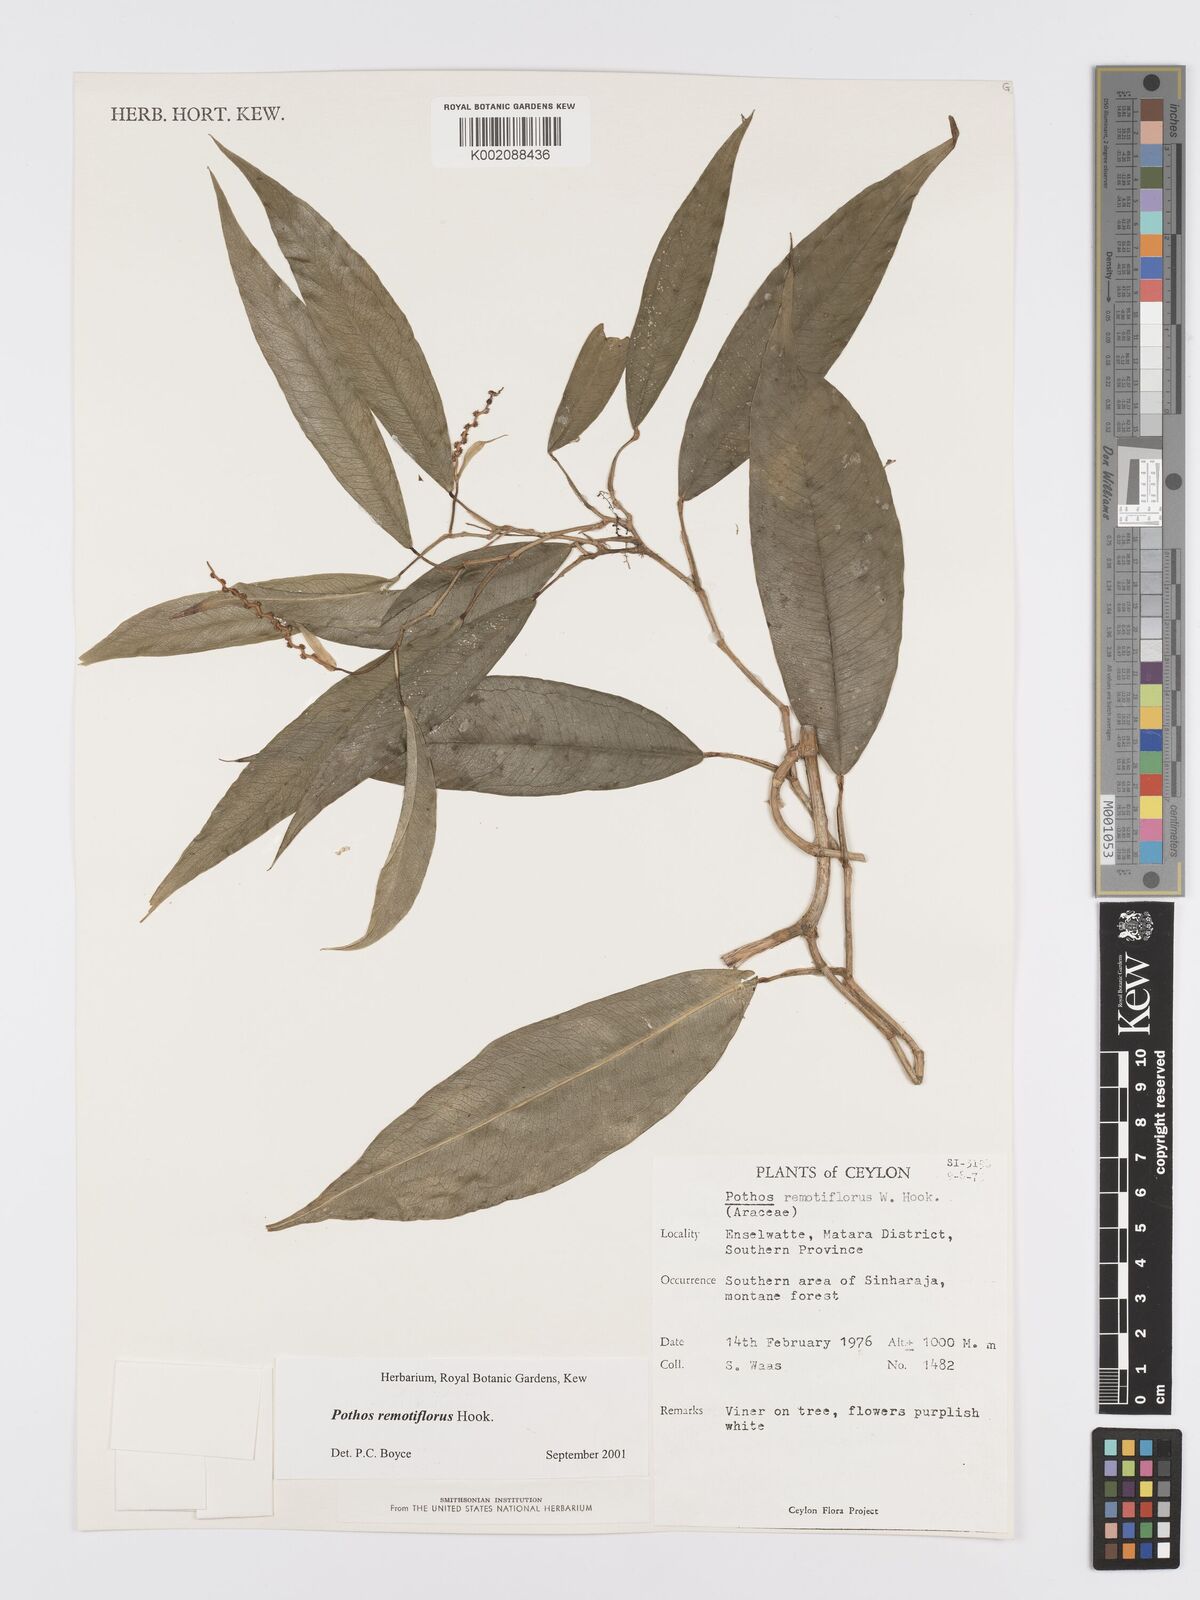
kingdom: Plantae
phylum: Tracheophyta
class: Liliopsida
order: Alismatales
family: Araceae
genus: Pothos
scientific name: Pothos remotiflorus
